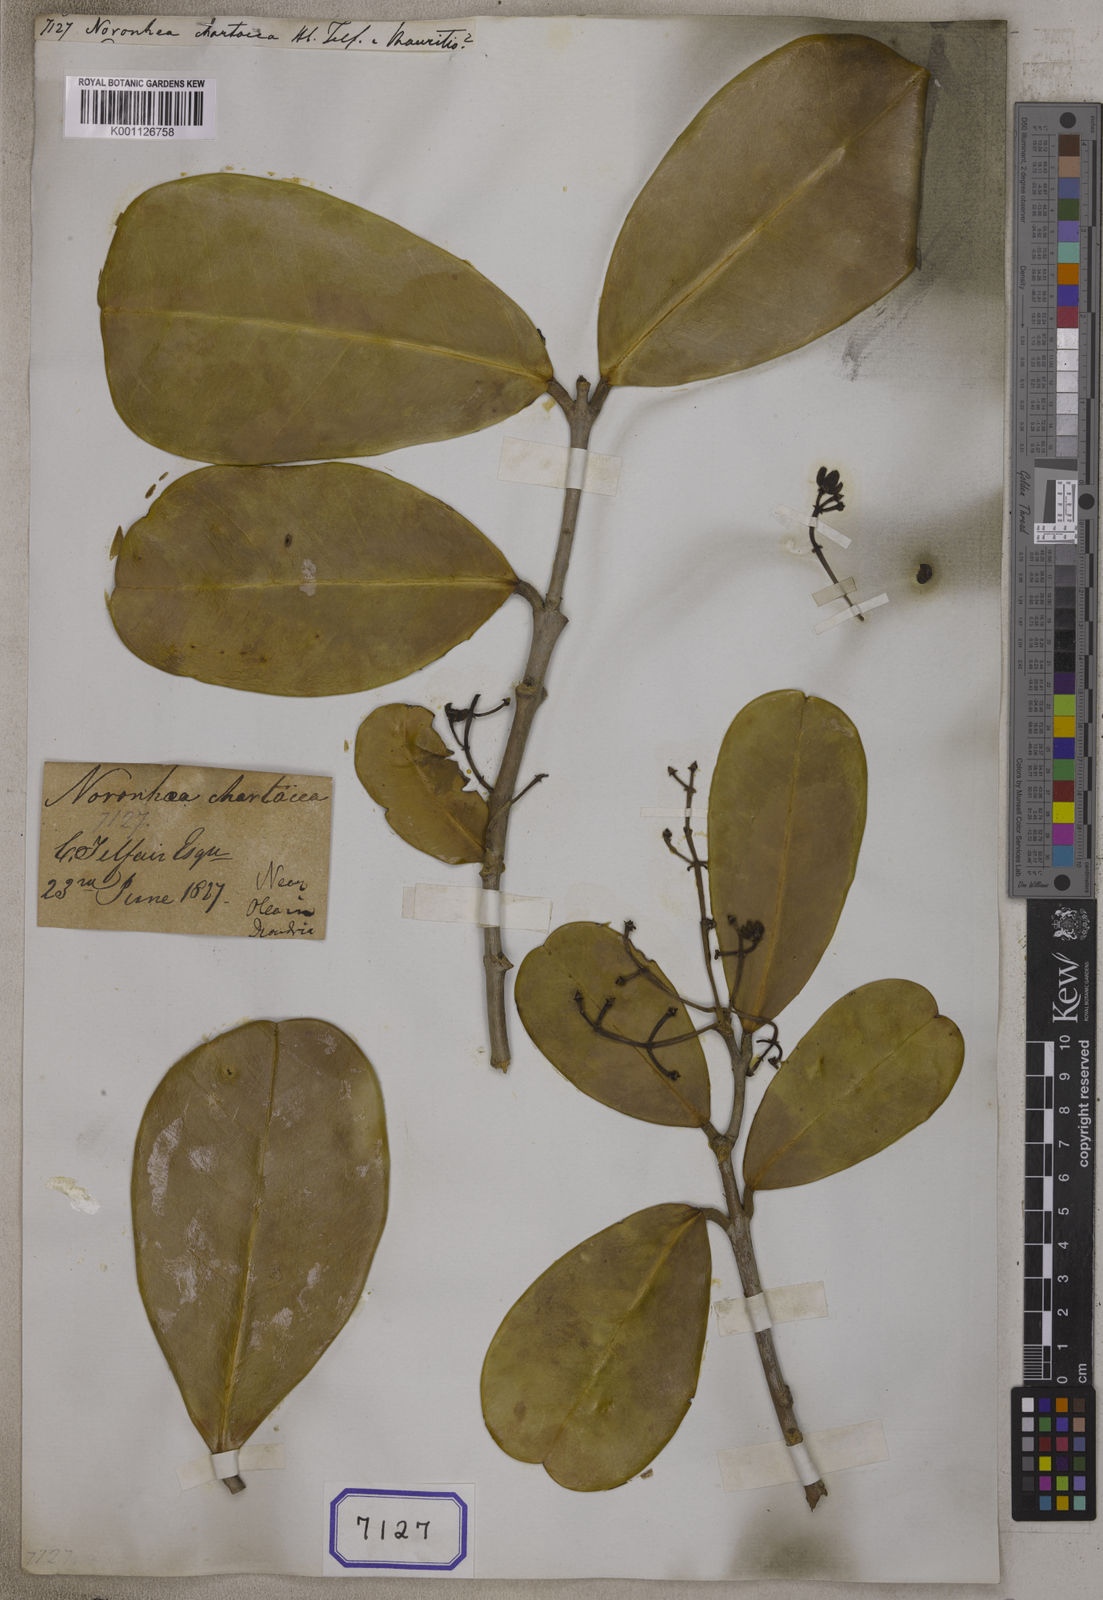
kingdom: Plantae
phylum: Tracheophyta
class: Magnoliopsida
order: Lamiales
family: Oleaceae
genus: Noronhia
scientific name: Noronhia emarginata
